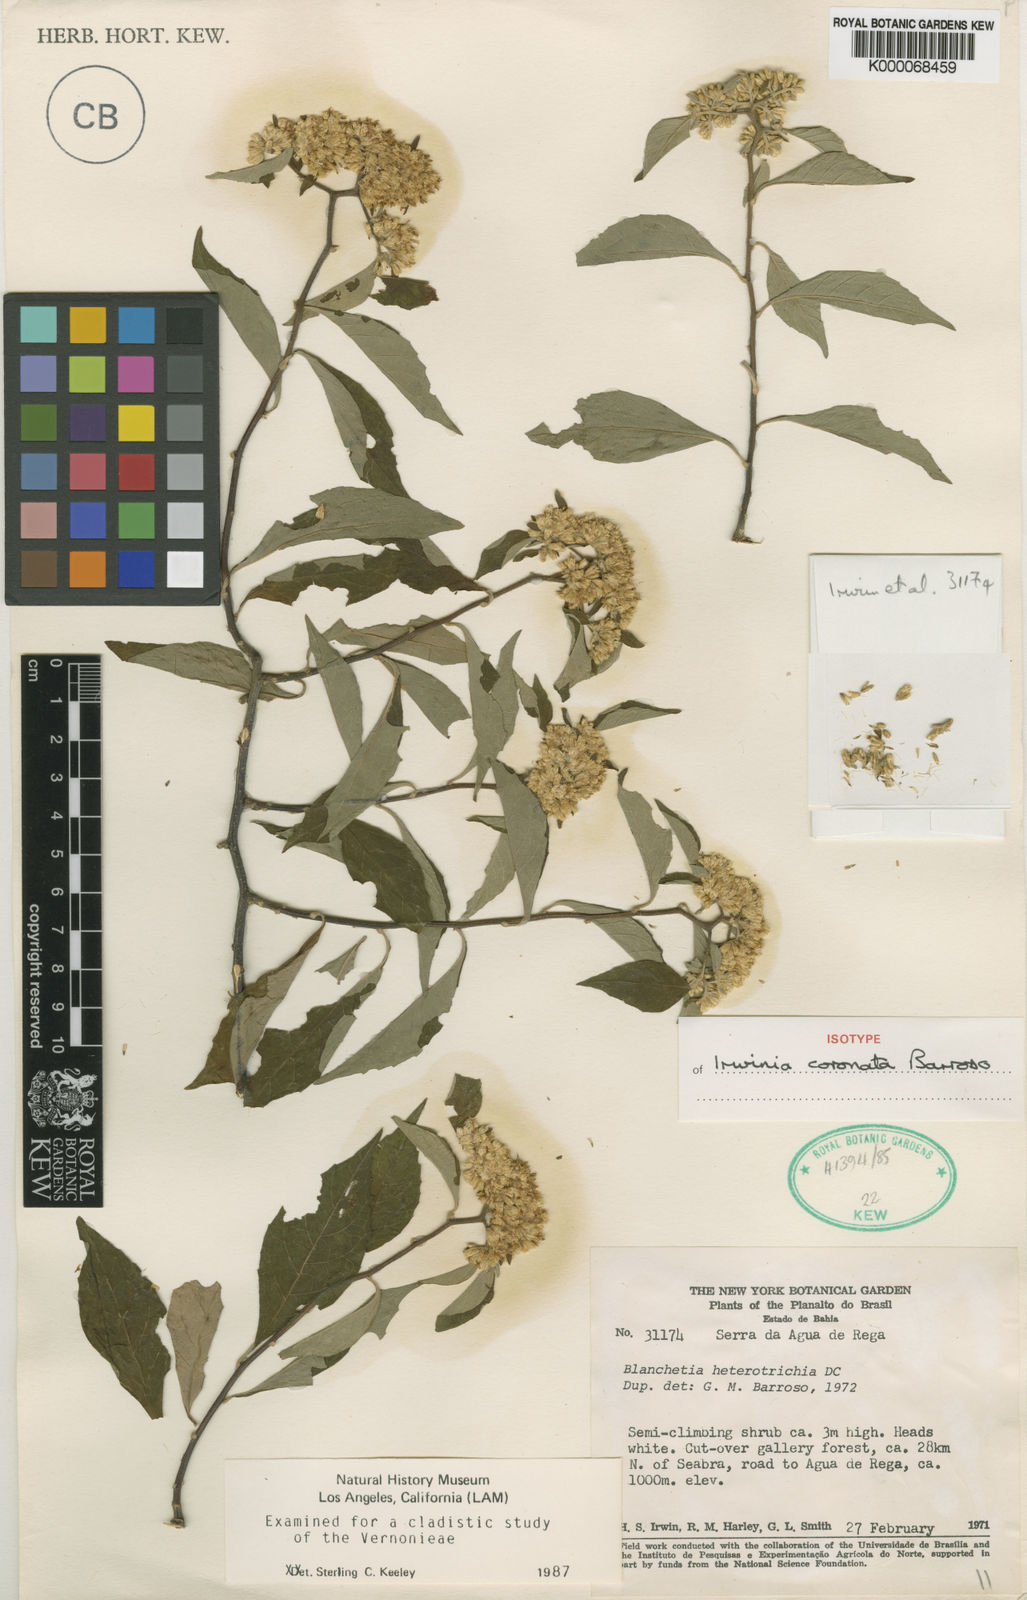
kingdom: Plantae
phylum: Tracheophyta
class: Magnoliopsida
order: Asterales
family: Asteraceae
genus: Blanchetia
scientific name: Blanchetia coronata
